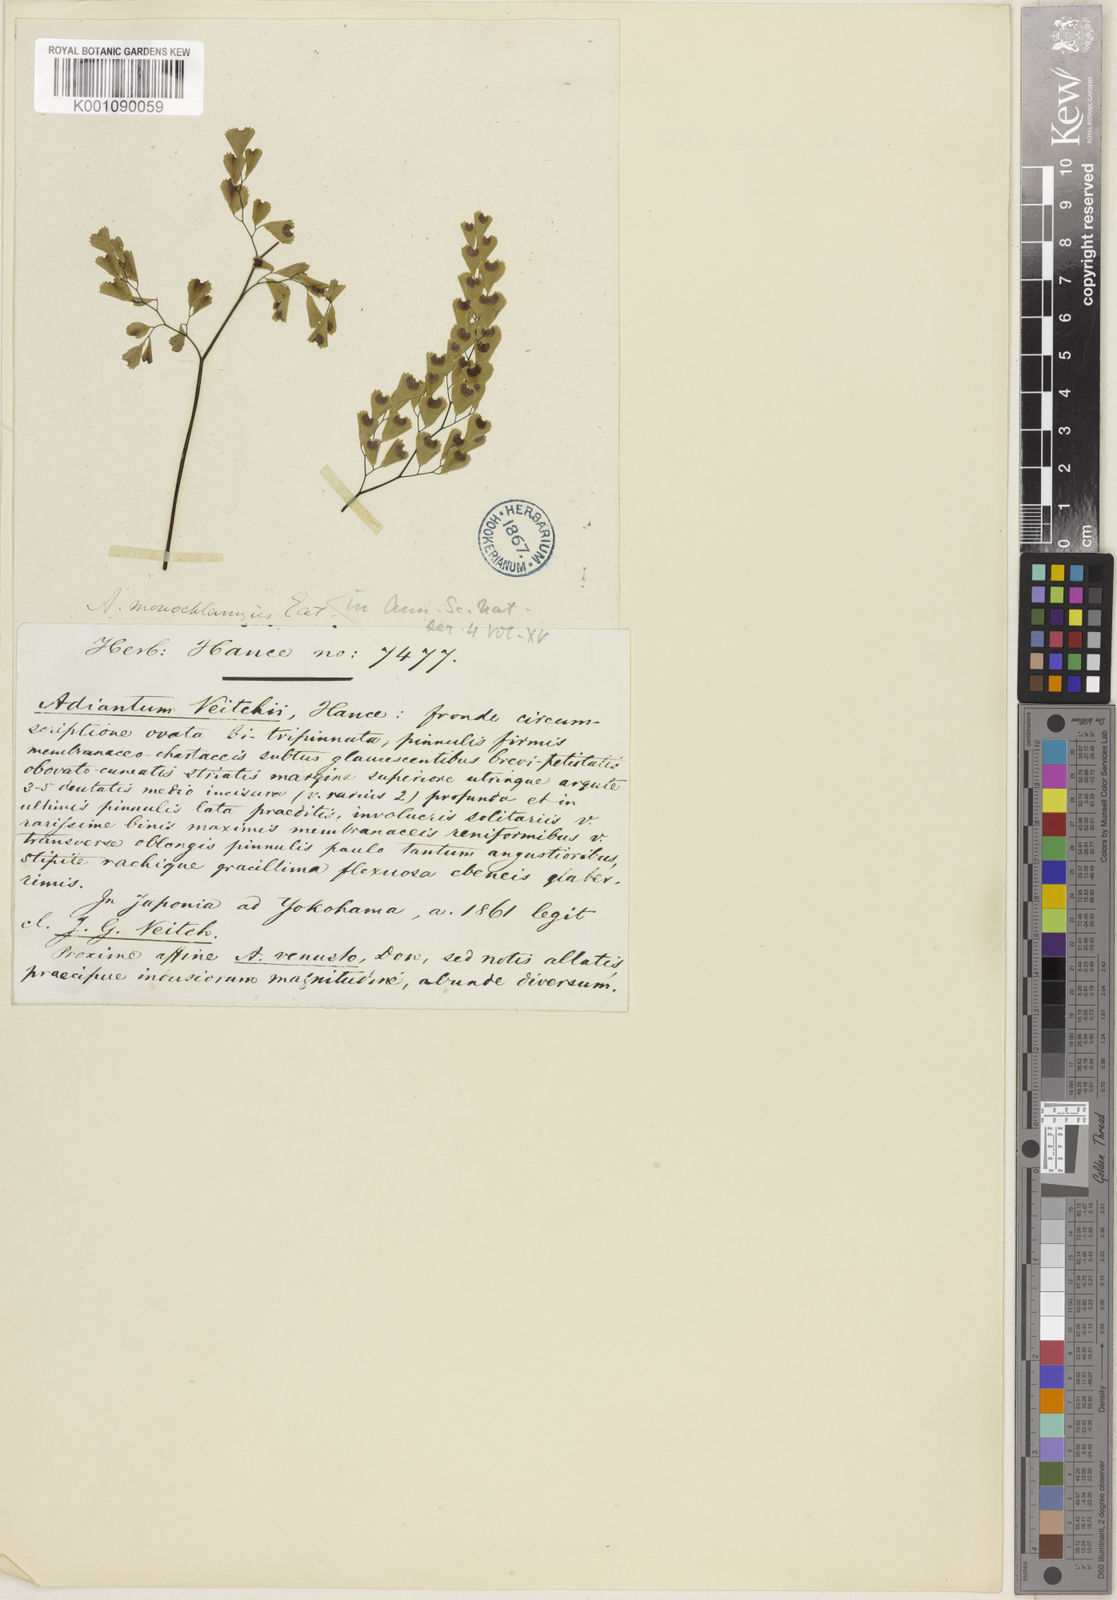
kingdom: Plantae
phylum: Tracheophyta
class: Polypodiopsida
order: Polypodiales
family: Pteridaceae
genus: Adiantum
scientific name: Adiantum monochlamys
